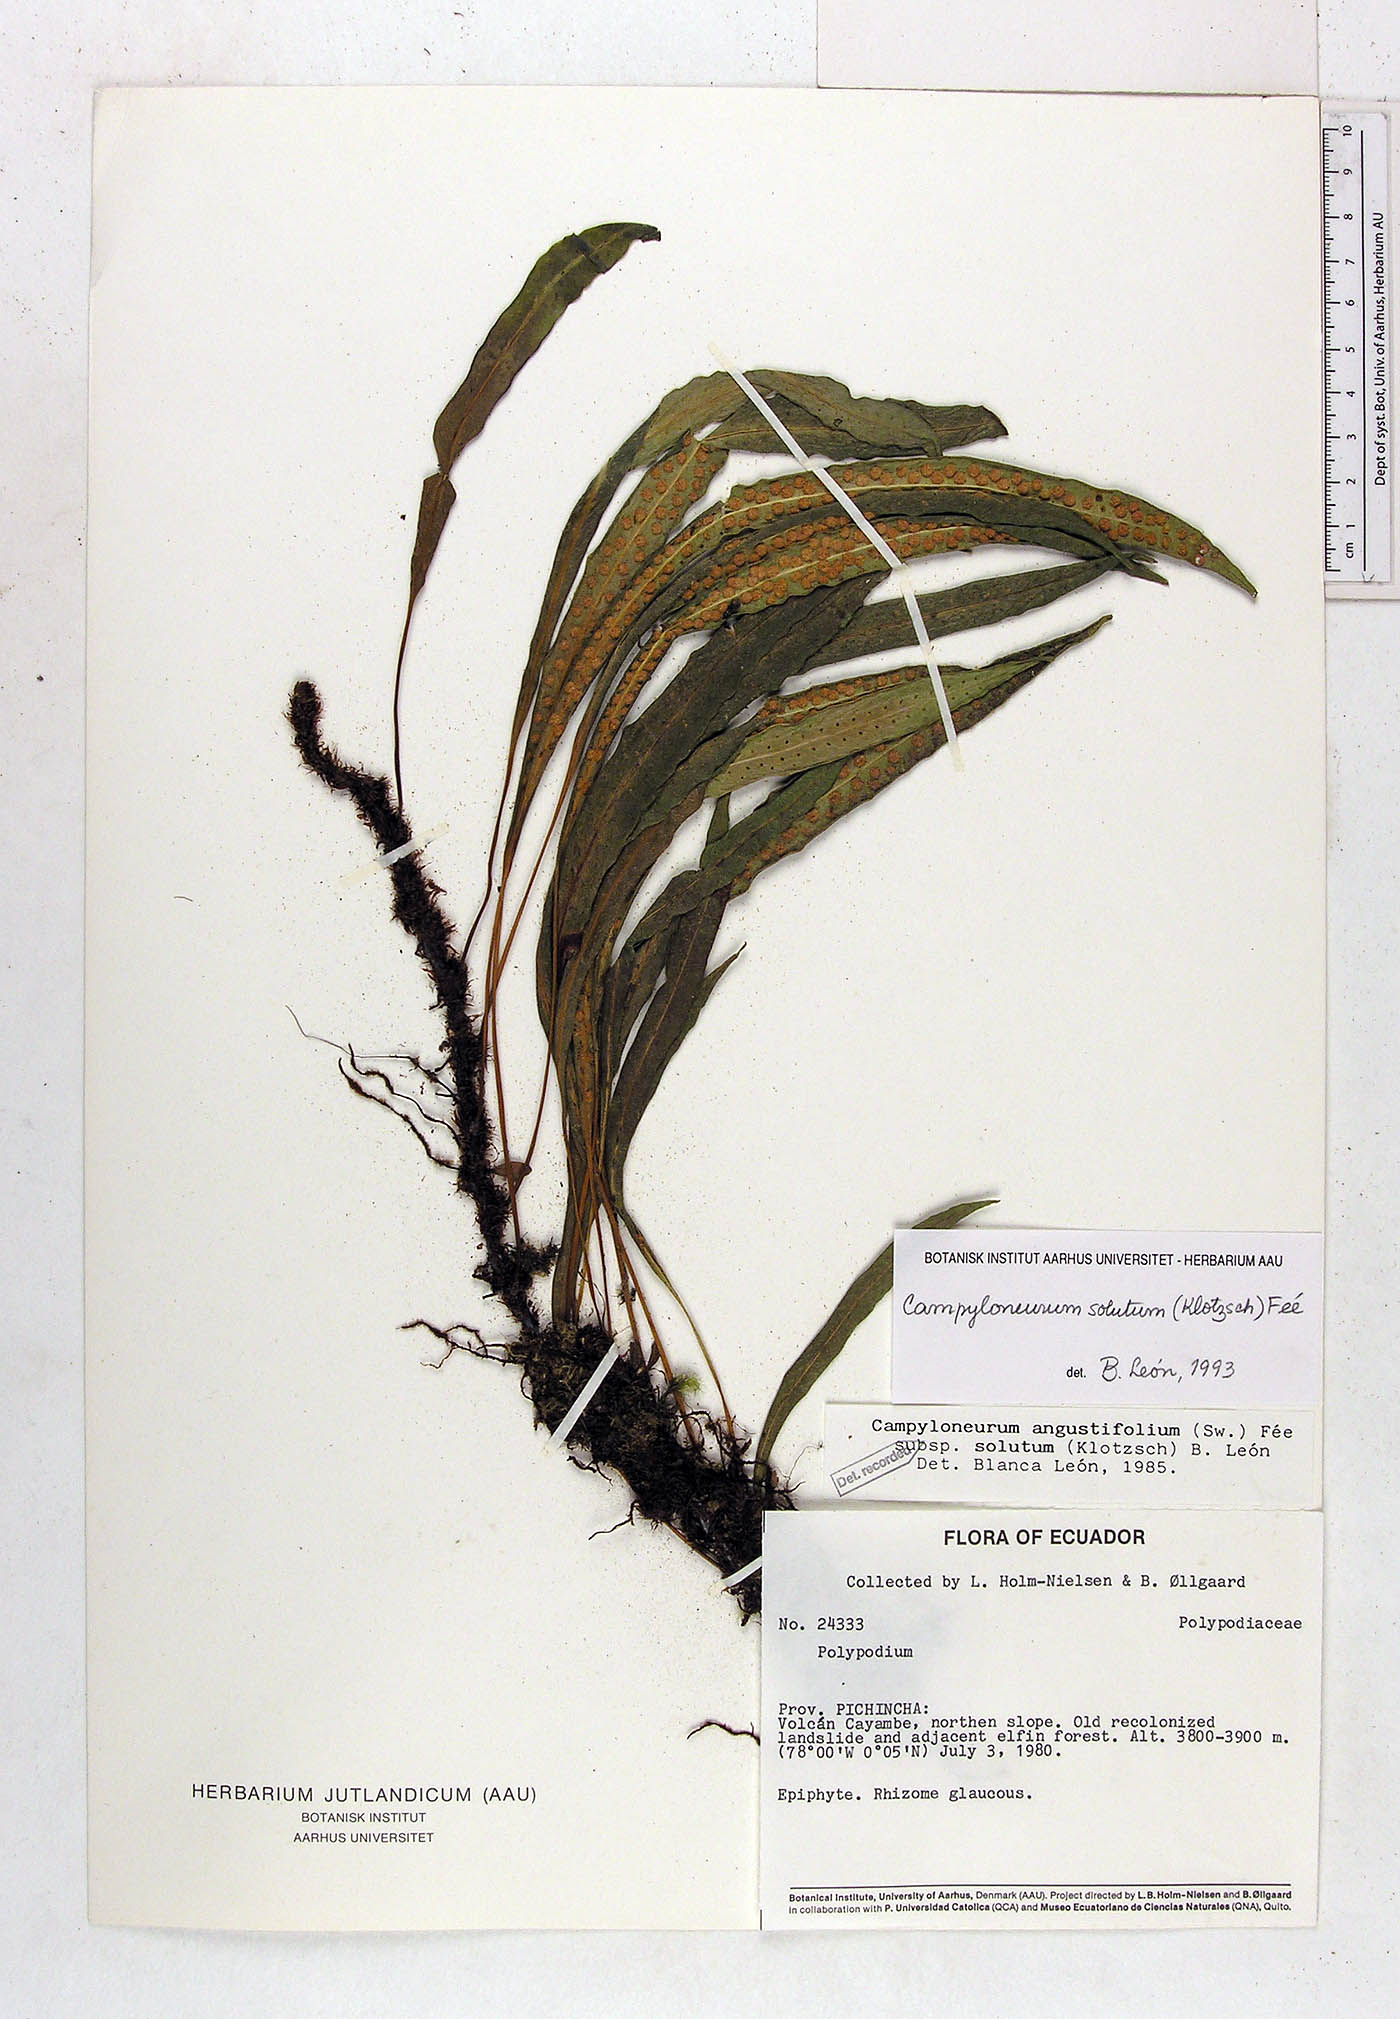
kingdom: Plantae
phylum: Tracheophyta
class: Polypodiopsida
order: Polypodiales
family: Polypodiaceae
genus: Campyloneurum
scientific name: Campyloneurum solutum
